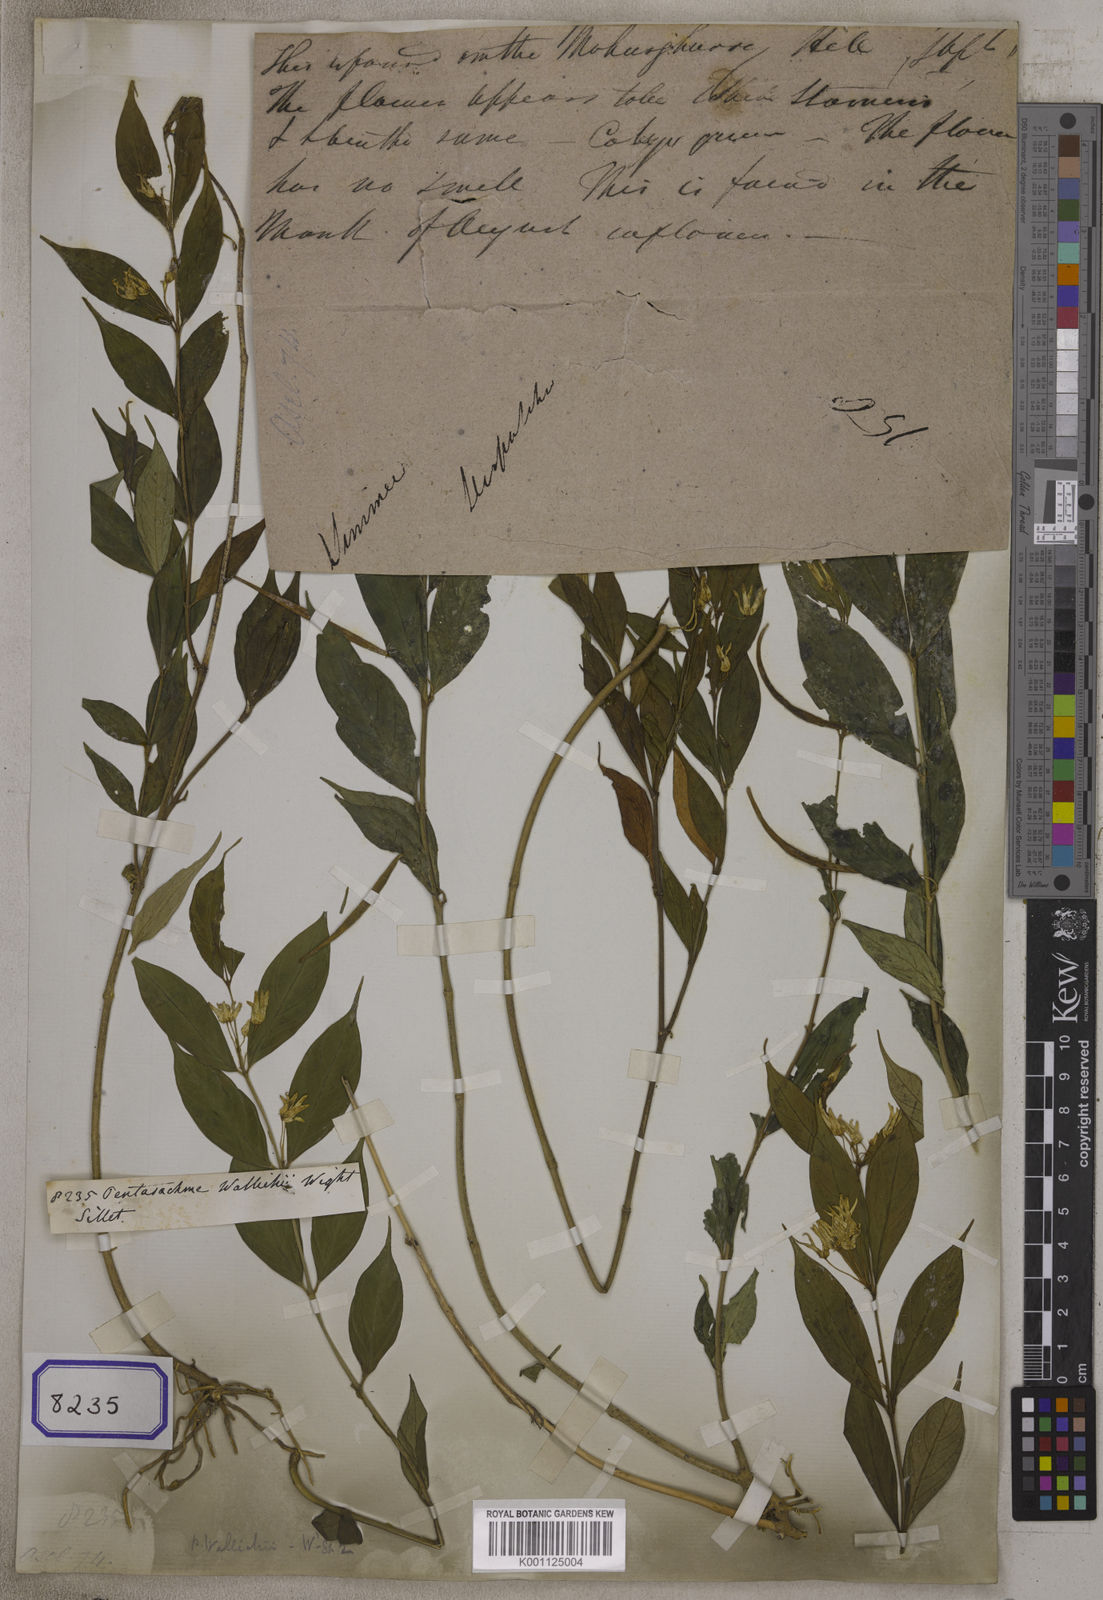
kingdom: Plantae
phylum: Tracheophyta
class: Magnoliopsida
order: Gentianales
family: Apocynaceae
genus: Pentasachme
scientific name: Pentasachme wallichii
